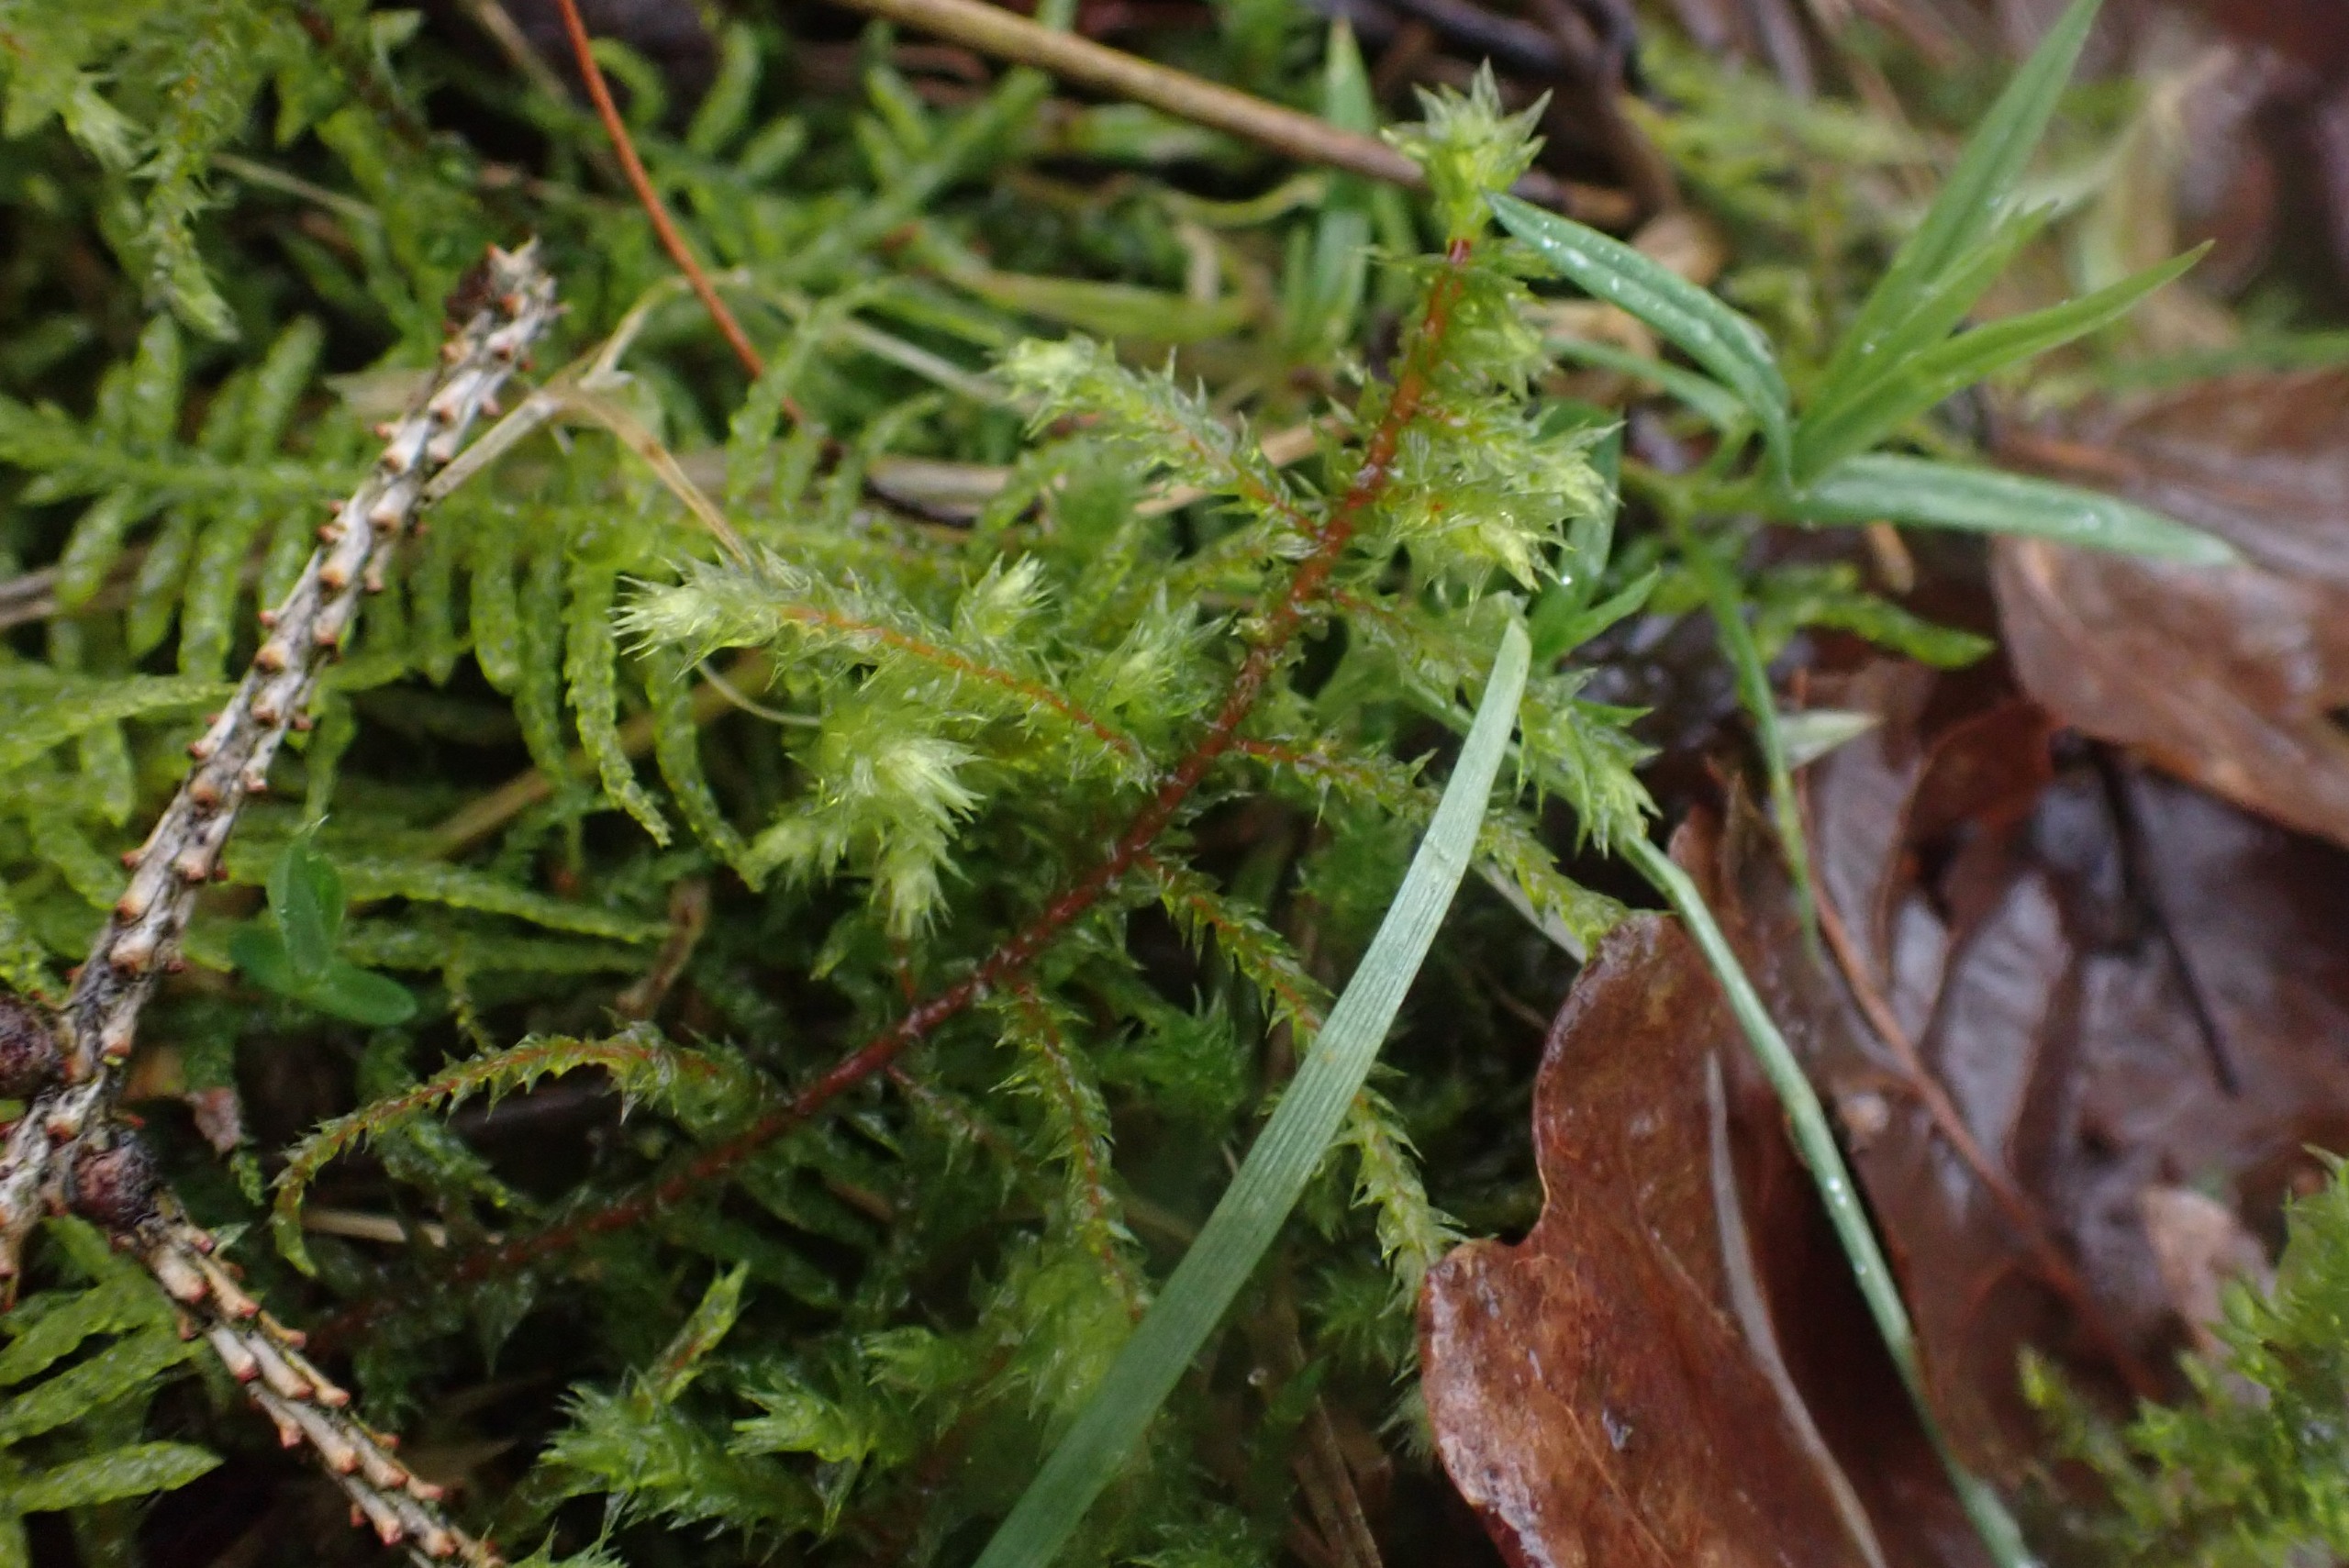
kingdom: Plantae
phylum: Bryophyta
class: Bryopsida
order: Hypnales
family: Hylocomiaceae
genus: Hylocomiadelphus
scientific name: Hylocomiadelphus triquetrus
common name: Stor kransemos
